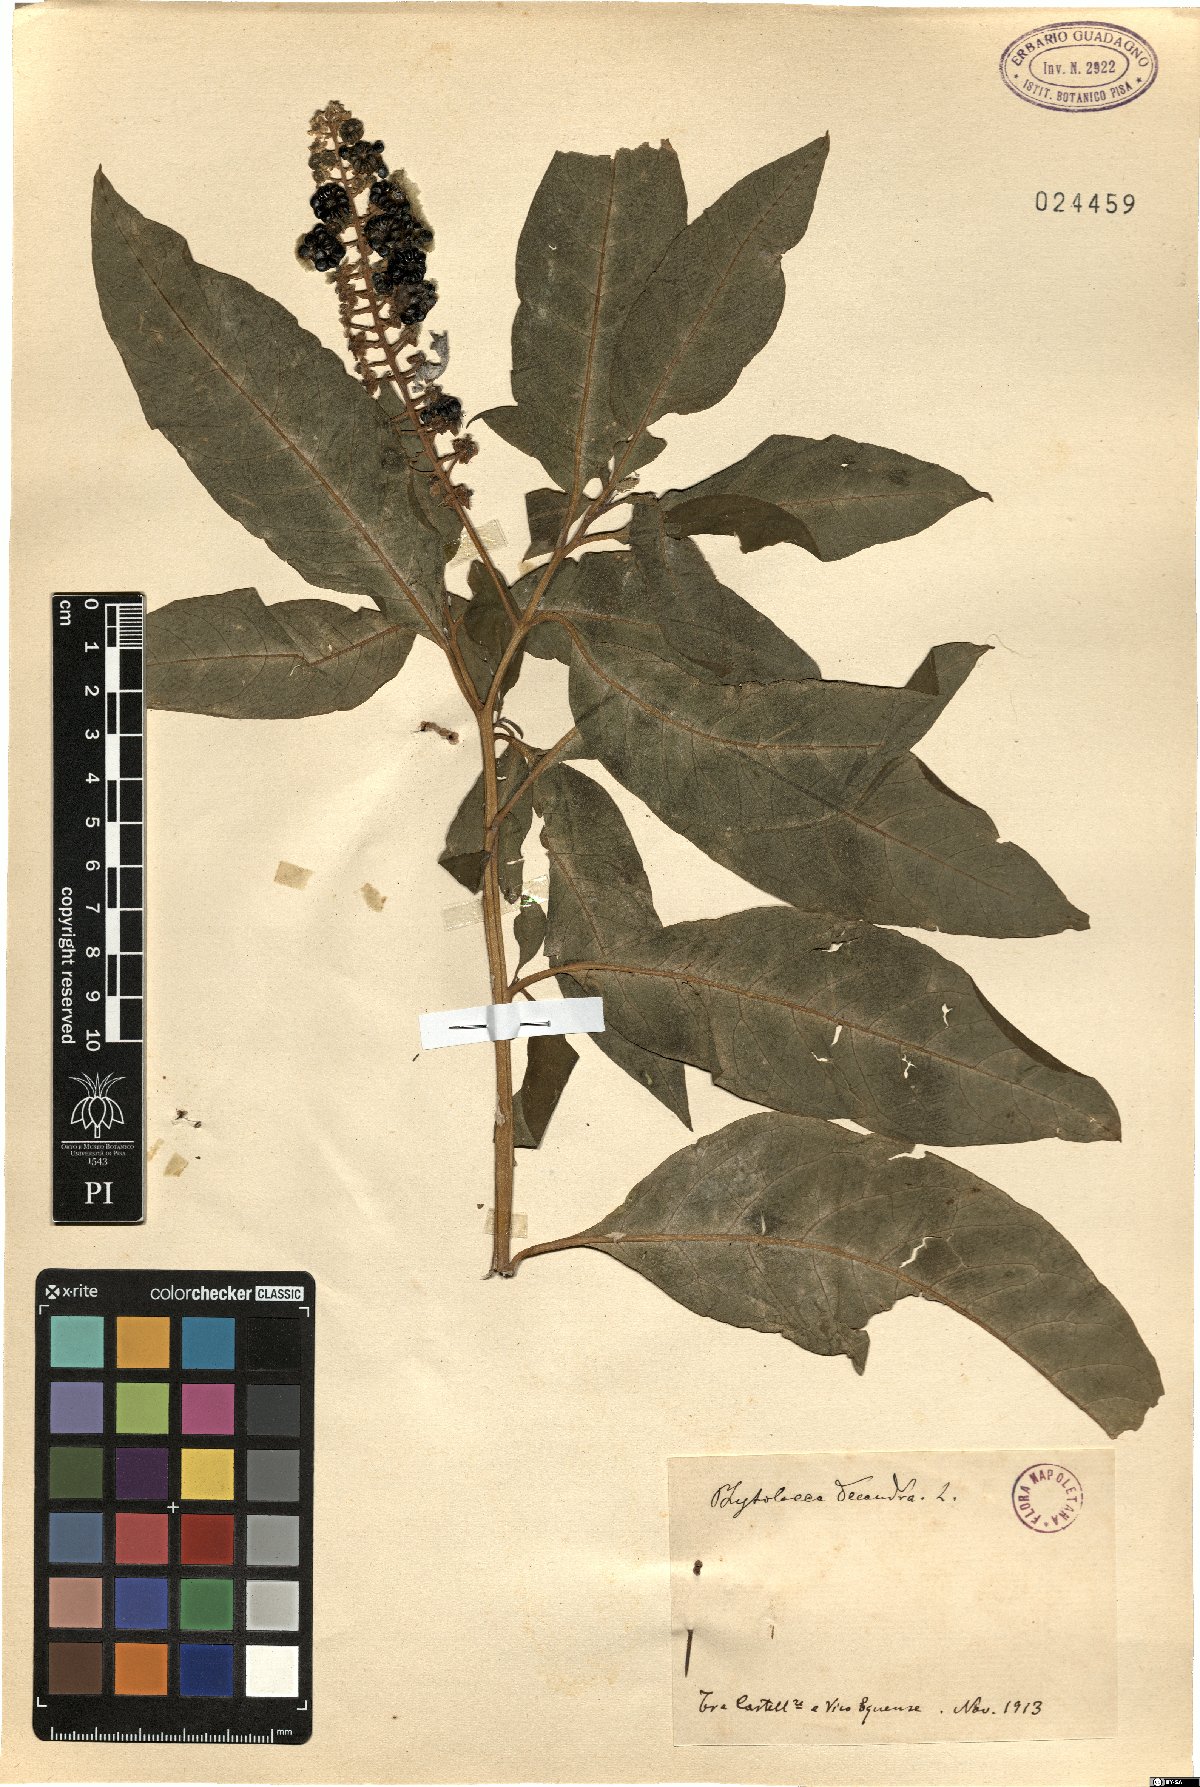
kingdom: Plantae
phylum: Tracheophyta
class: Magnoliopsida
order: Caryophyllales
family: Phytolaccaceae
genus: Phytolacca
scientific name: Phytolacca americana
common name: American pokeweed
